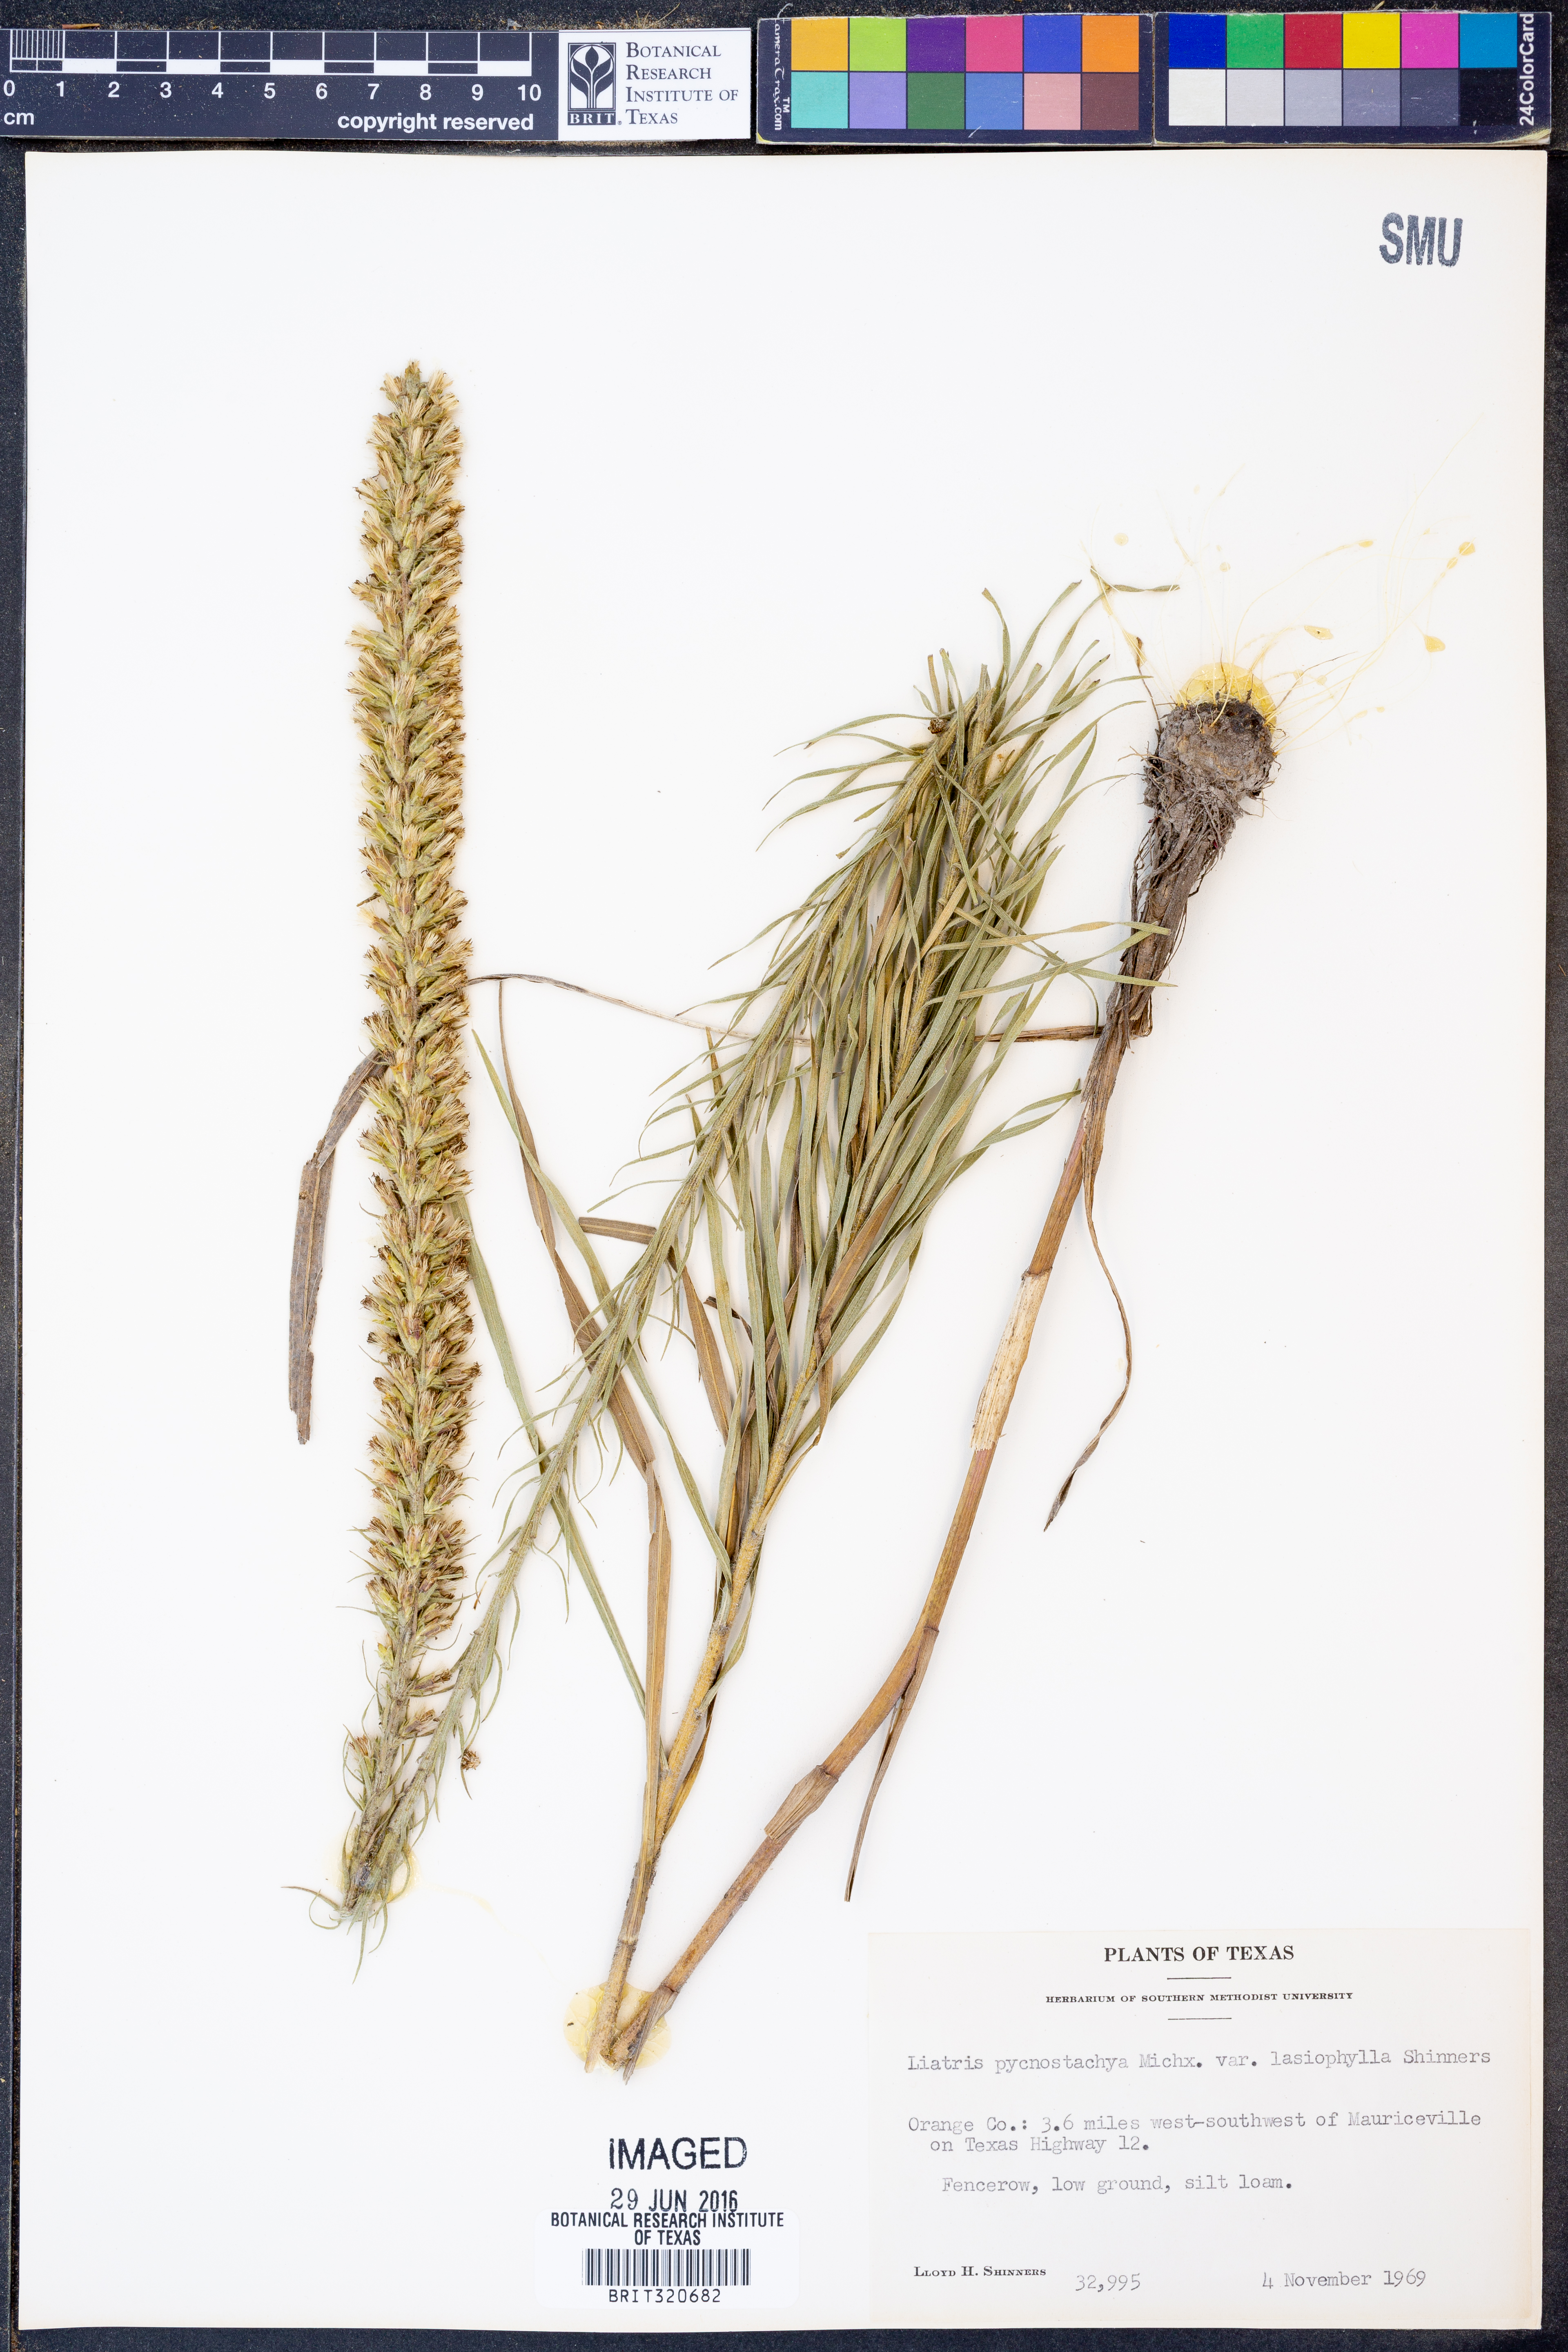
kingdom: Plantae
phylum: Tracheophyta
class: Magnoliopsida
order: Asterales
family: Asteraceae
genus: Liatris
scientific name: Liatris pycnostachya
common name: Cattail gayfeather
